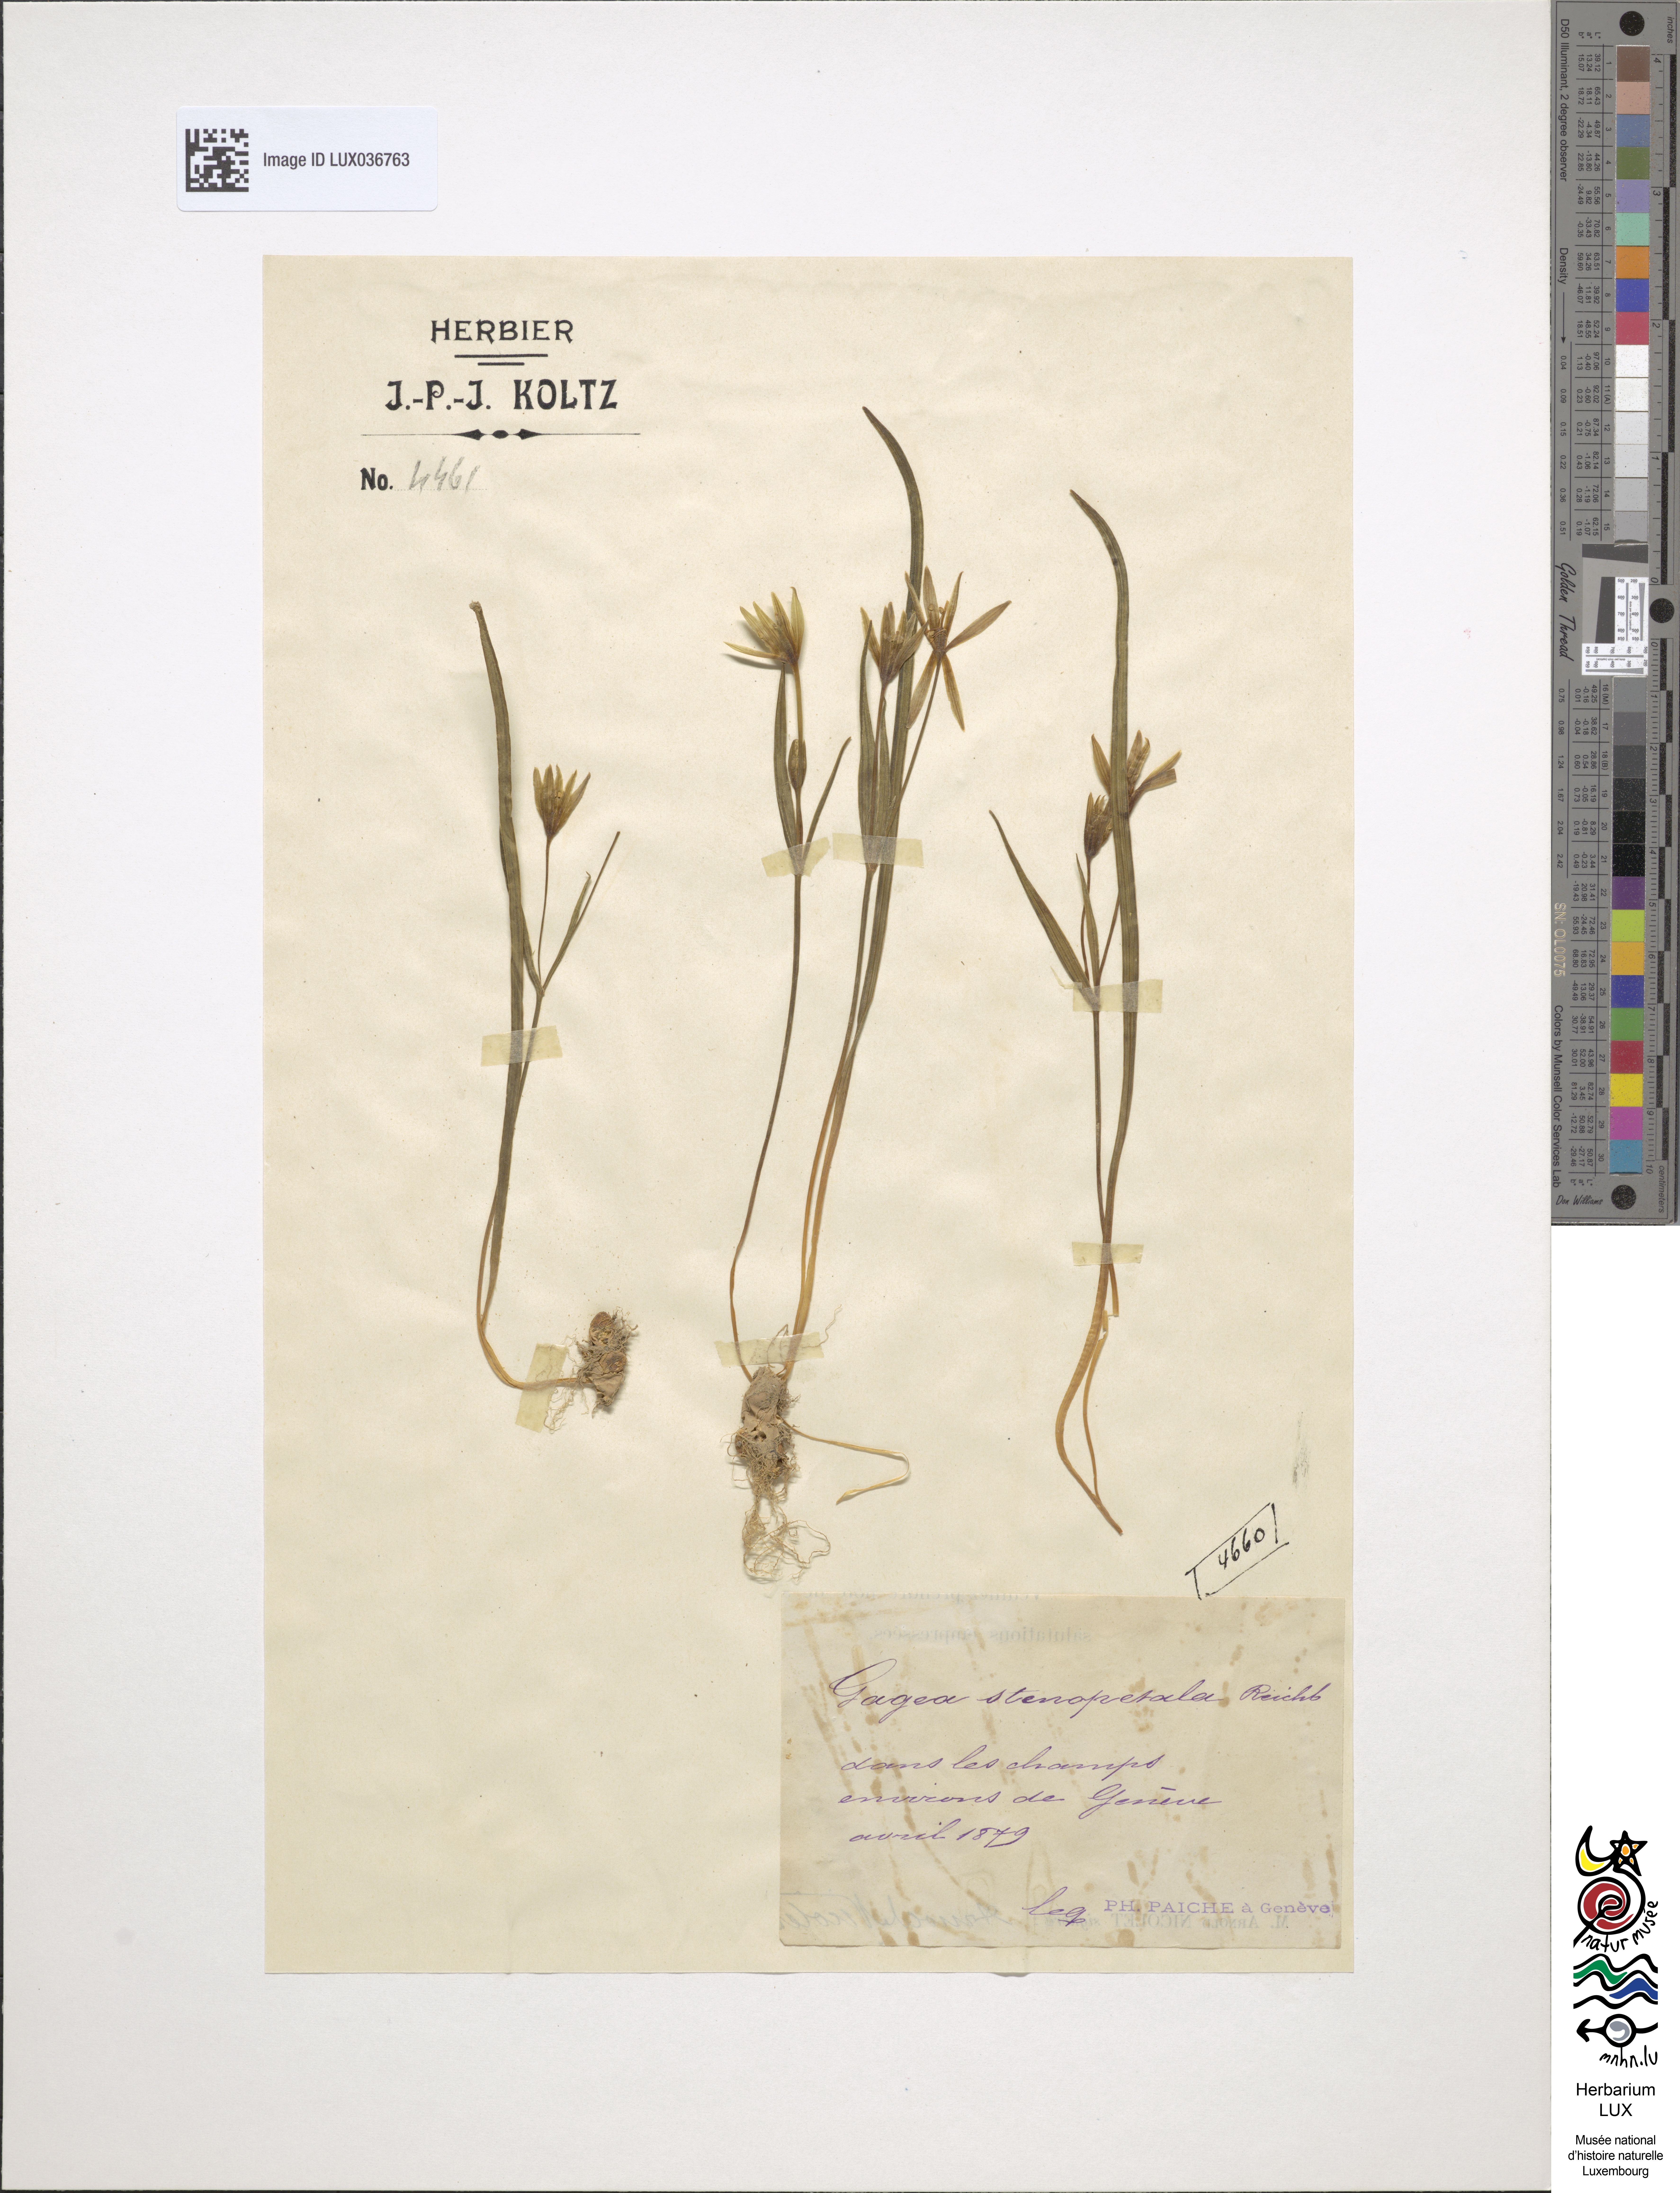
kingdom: Plantae
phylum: Tracheophyta
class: Liliopsida
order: Liliales
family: Liliaceae
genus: Gagea
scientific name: Gagea pratensis
